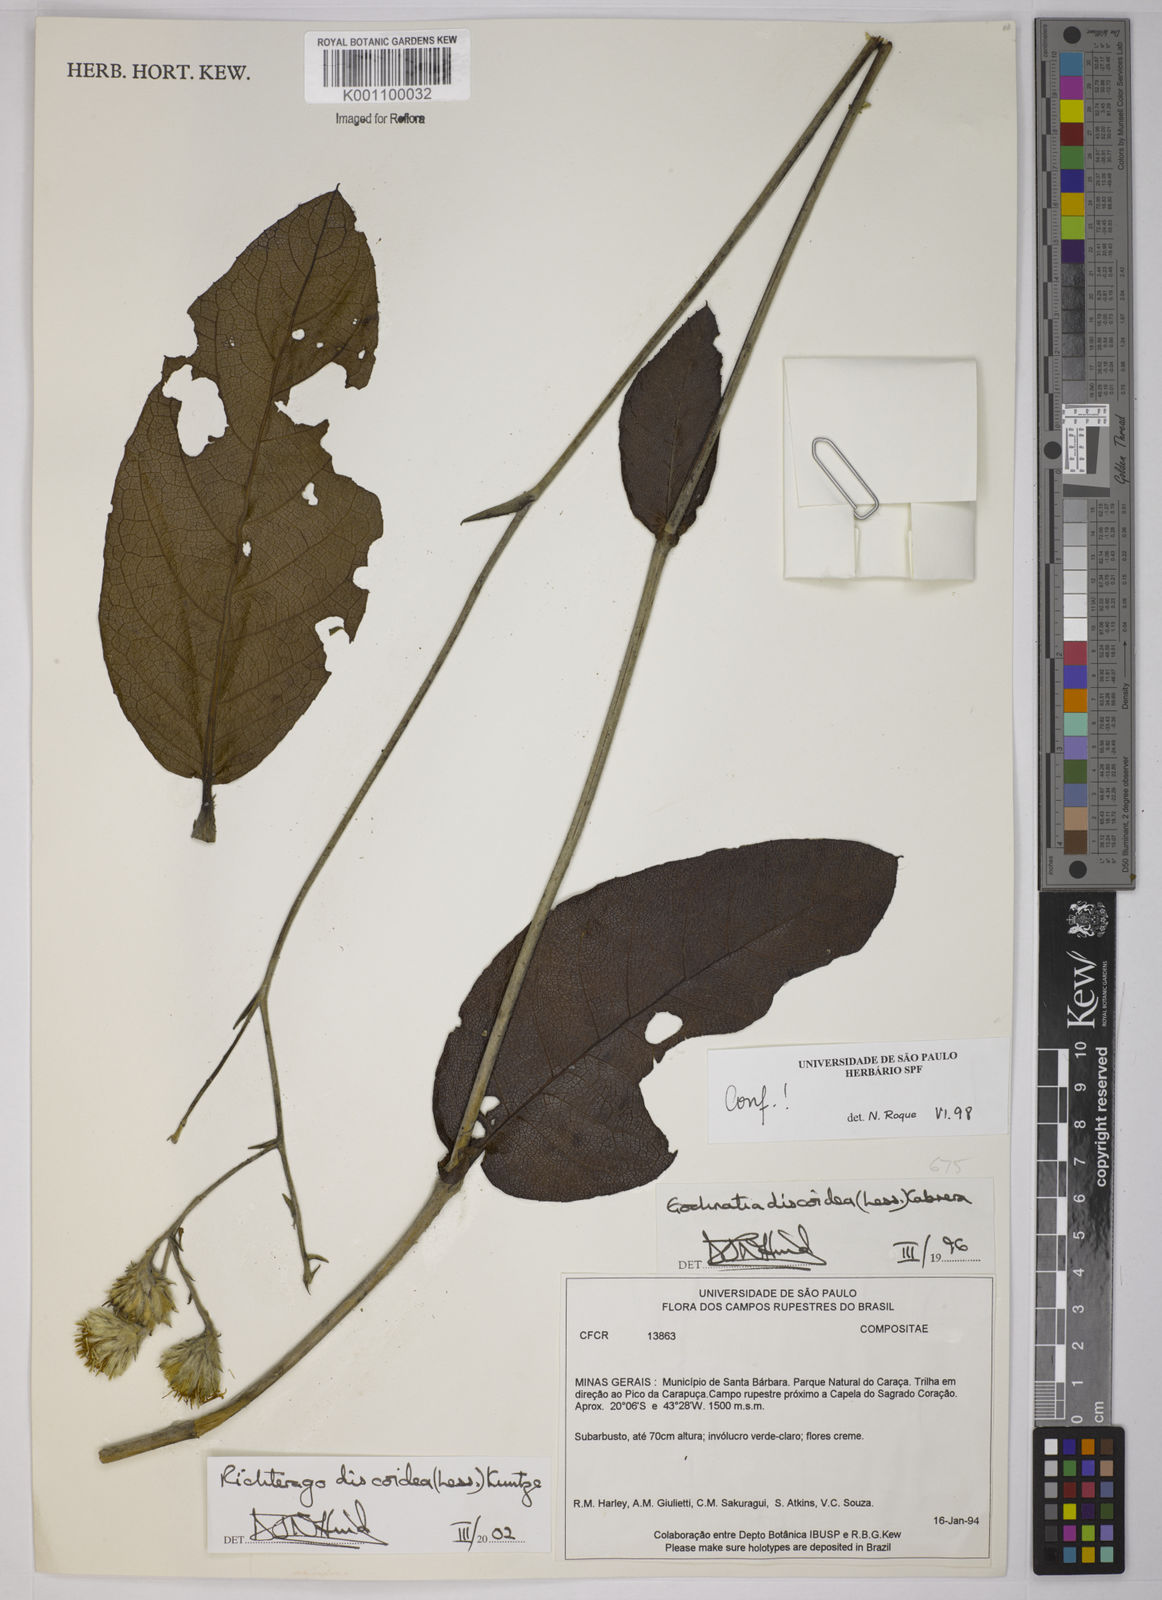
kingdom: Plantae
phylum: Tracheophyta
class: Magnoliopsida
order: Asterales
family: Asteraceae
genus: Richterago
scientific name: Richterago discoidea
